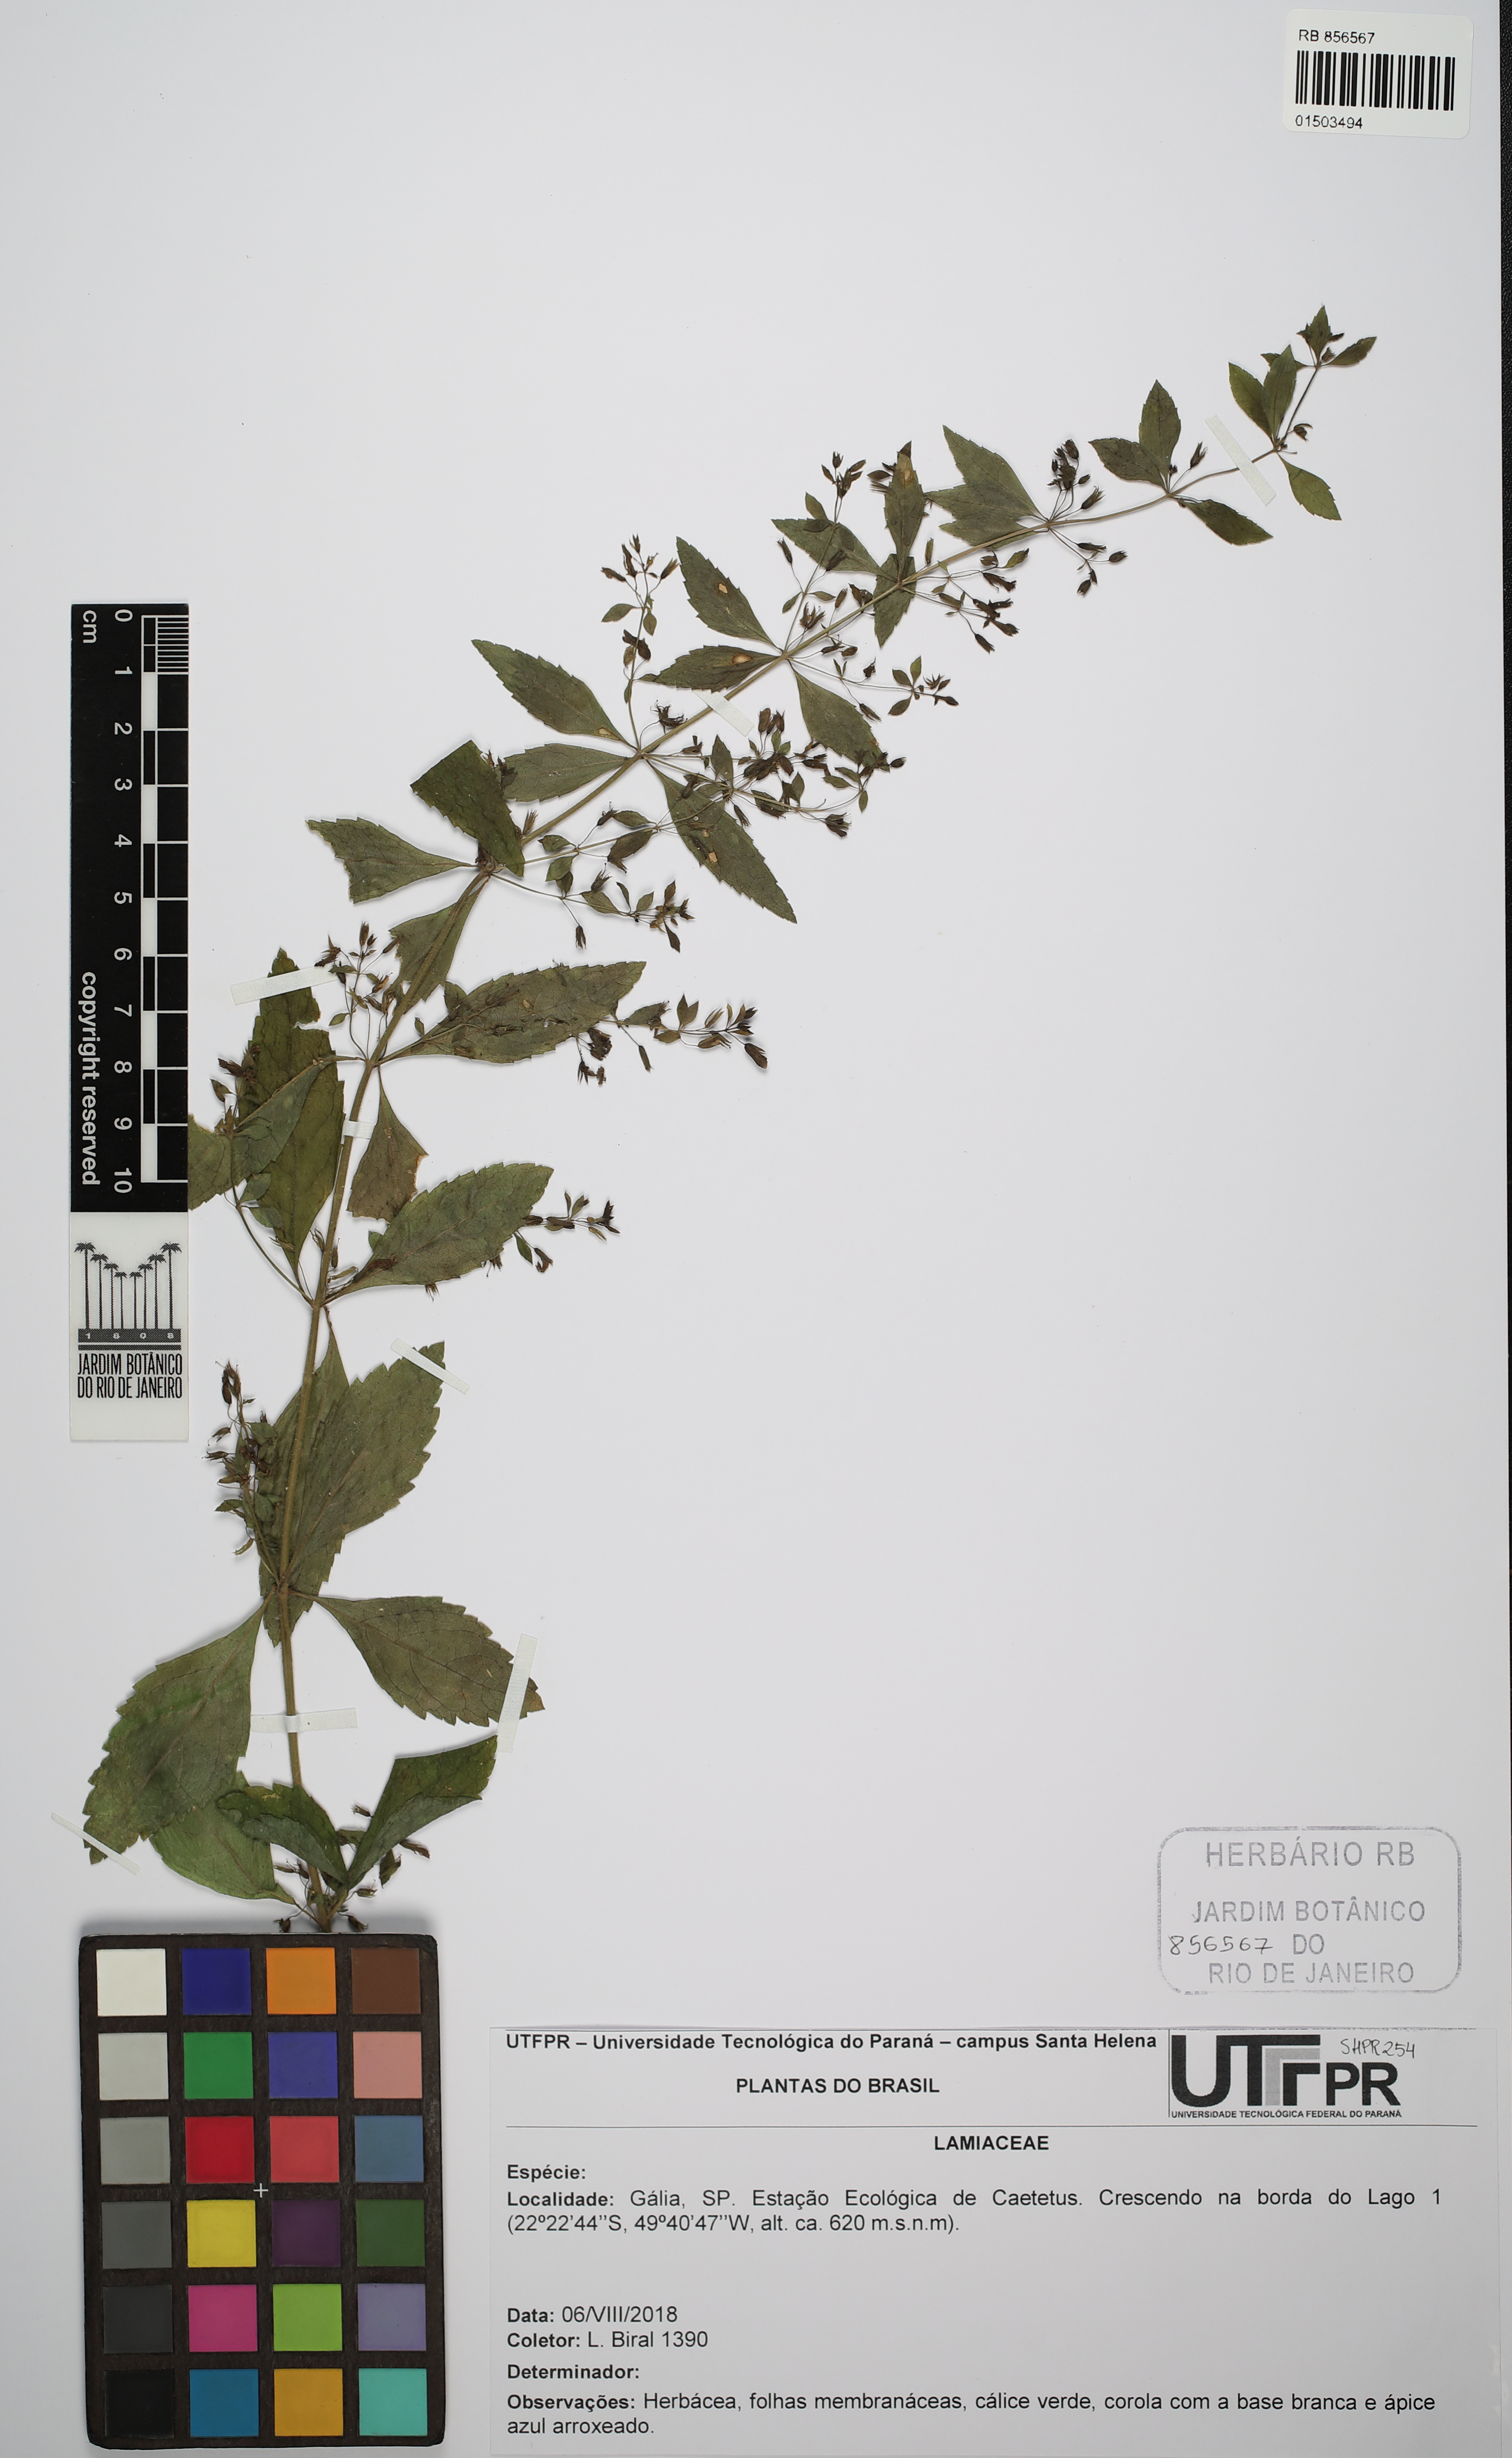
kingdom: Plantae
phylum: Tracheophyta
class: Magnoliopsida
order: Lamiales
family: Lamiaceae
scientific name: Lamiaceae
